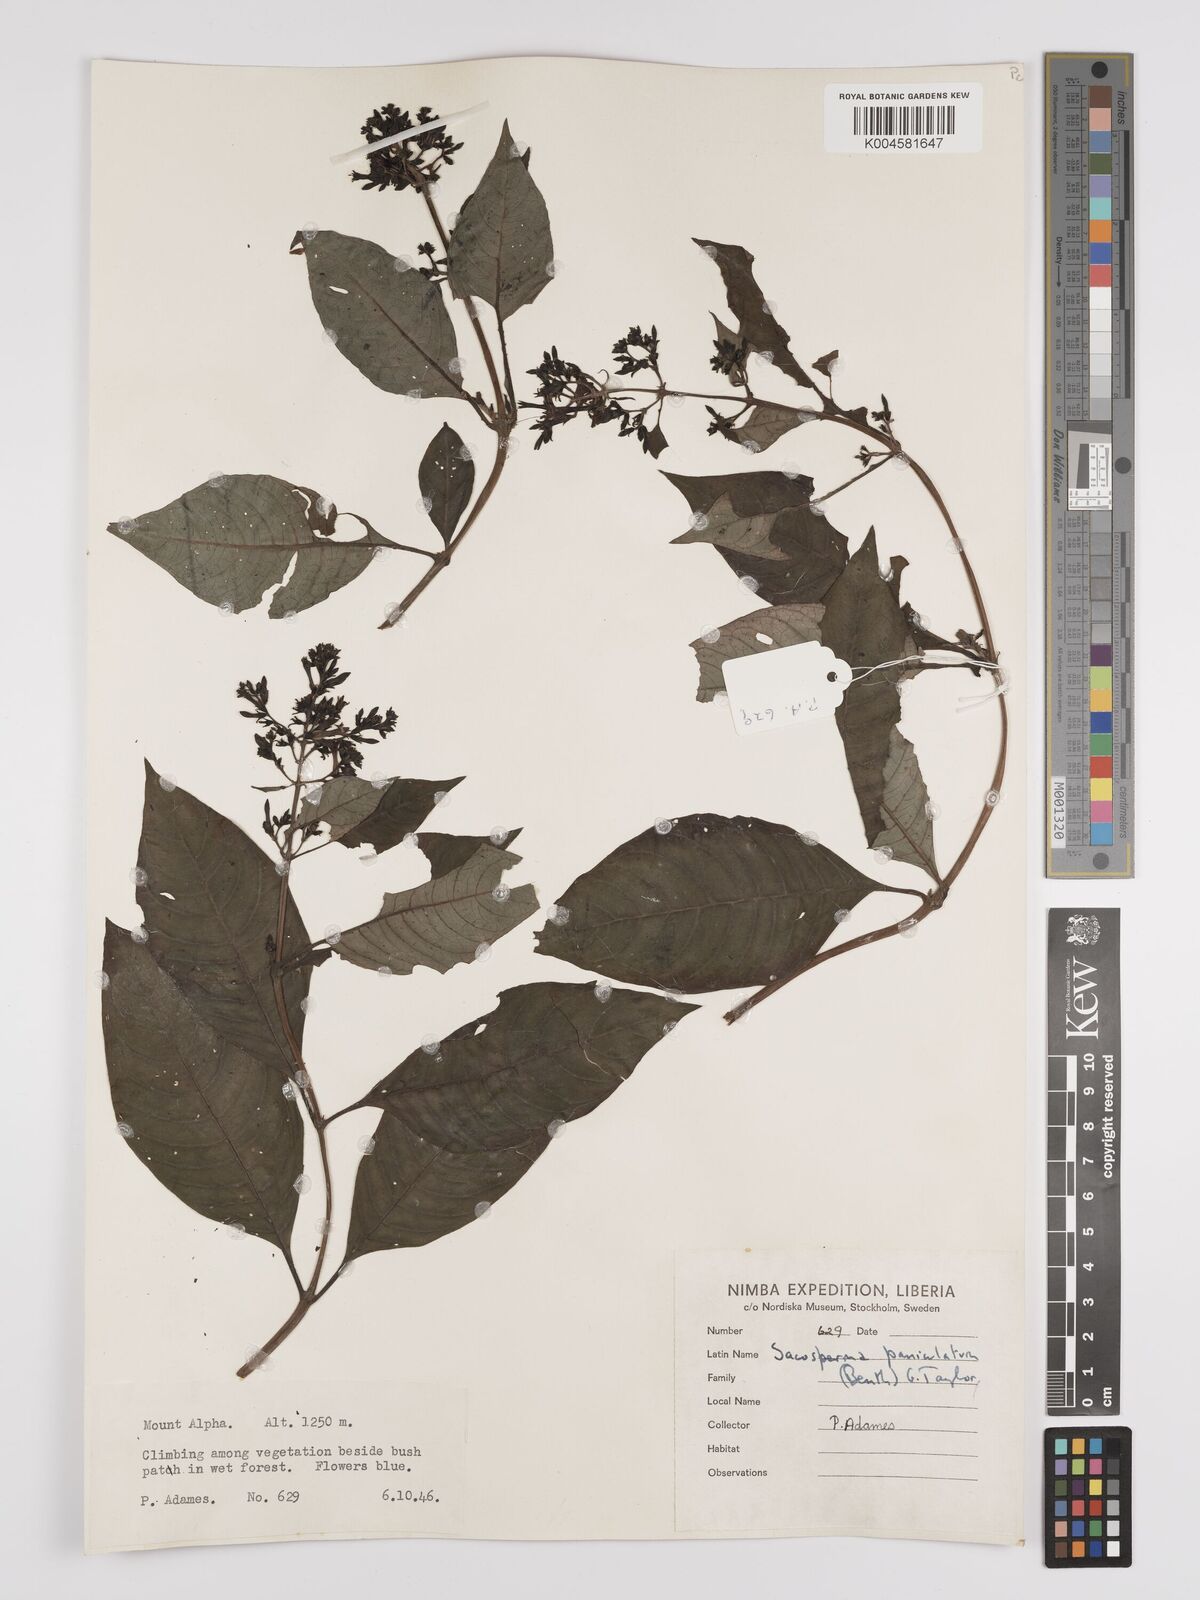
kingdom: Plantae
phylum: Tracheophyta
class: Magnoliopsida
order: Gentianales
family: Rubiaceae
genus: Sacosperma
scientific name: Sacosperma paniculatum
